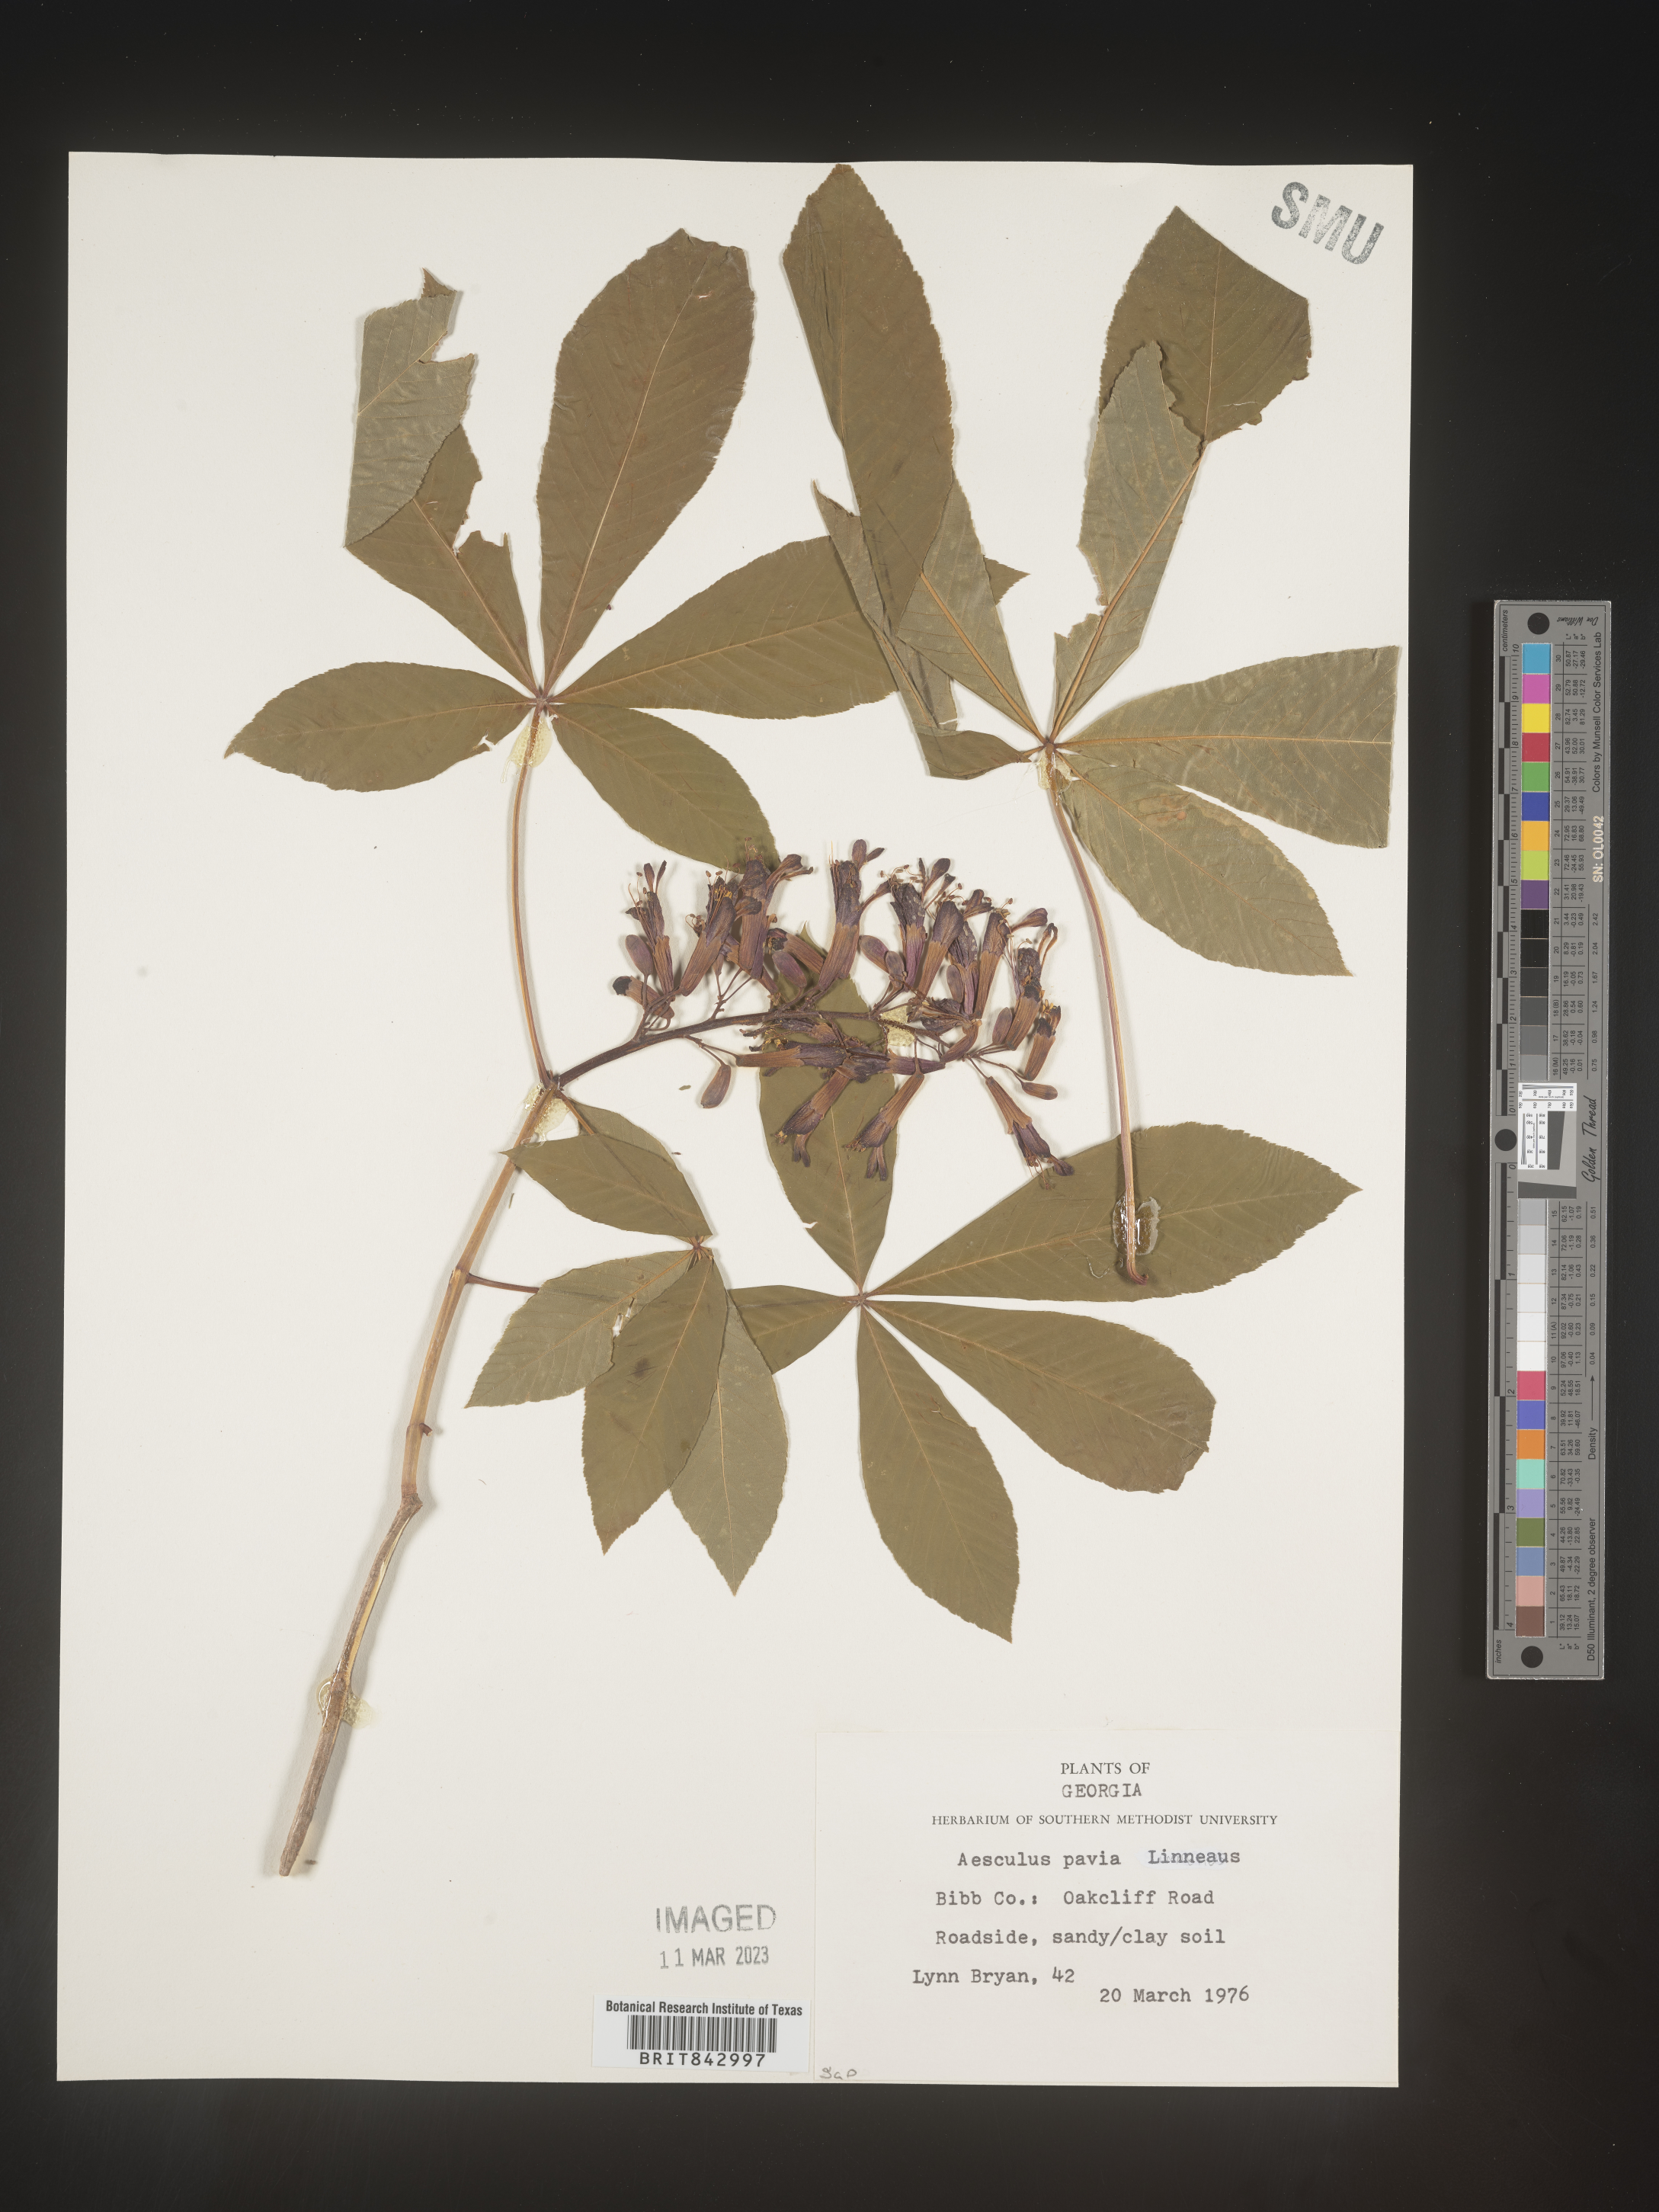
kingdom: Plantae
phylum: Tracheophyta
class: Magnoliopsida
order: Sapindales
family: Sapindaceae
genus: Aesculus
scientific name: Aesculus pavia
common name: Red buckeye
